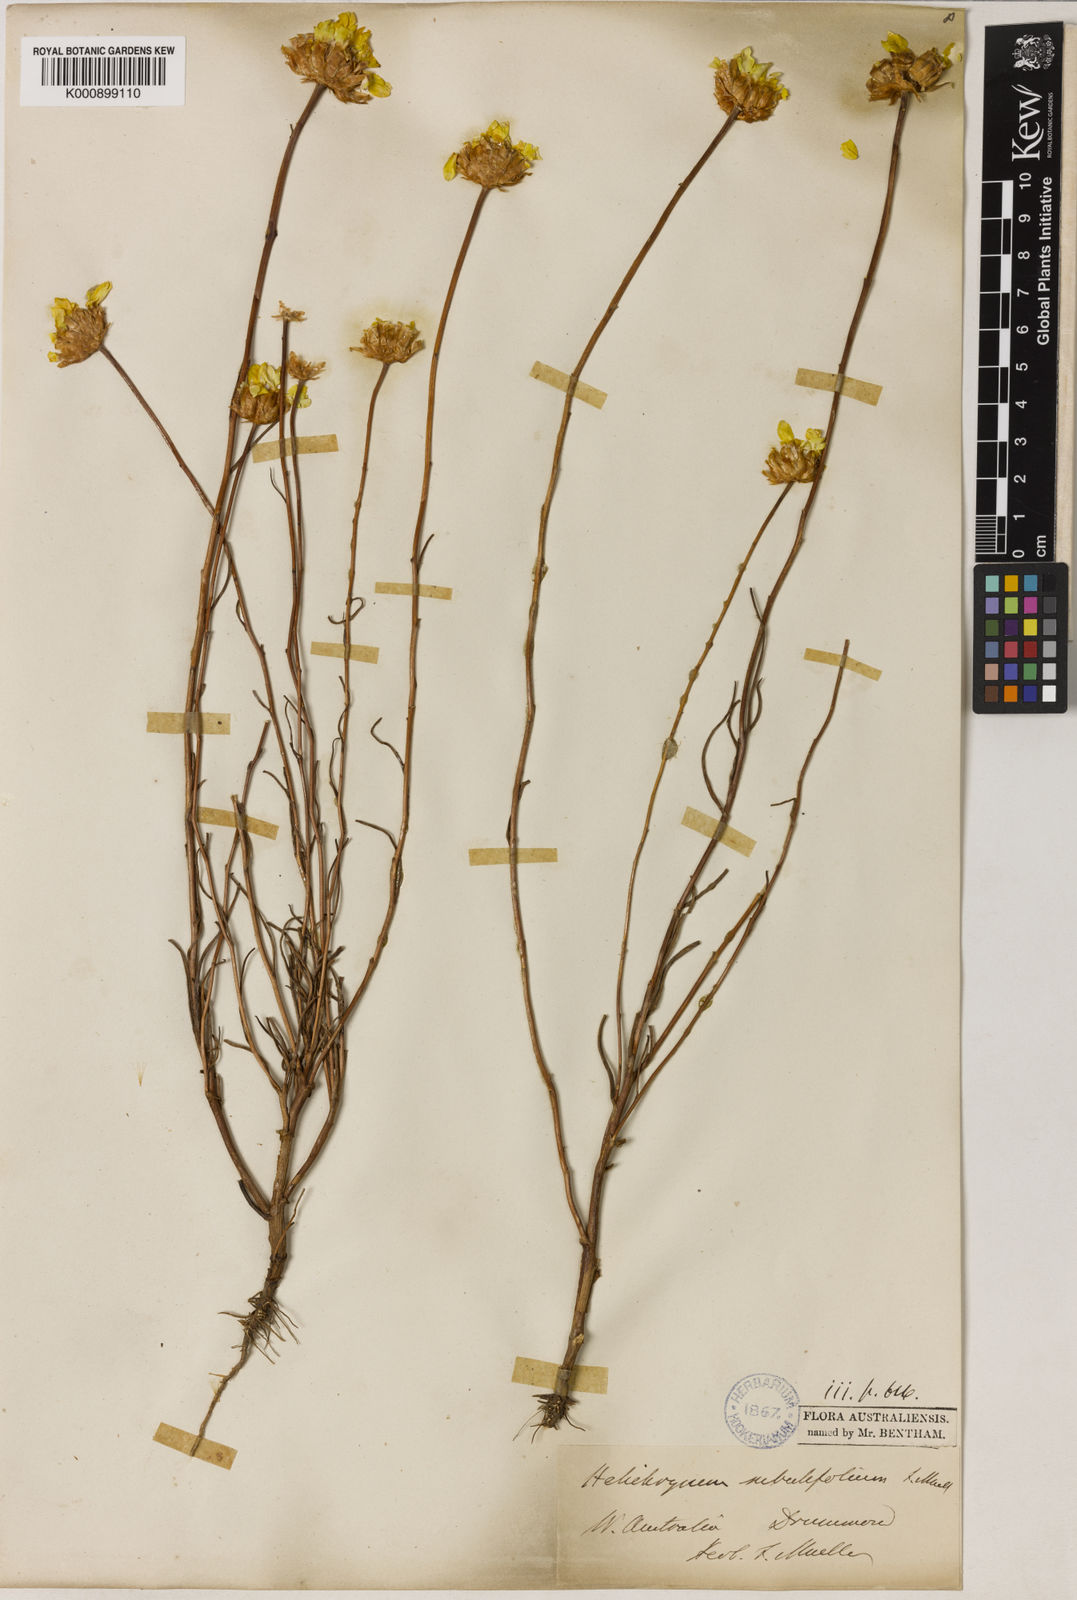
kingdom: Plantae
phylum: Tracheophyta
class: Magnoliopsida
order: Asterales
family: Asteraceae
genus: Schoenia
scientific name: Schoenia filifolia
